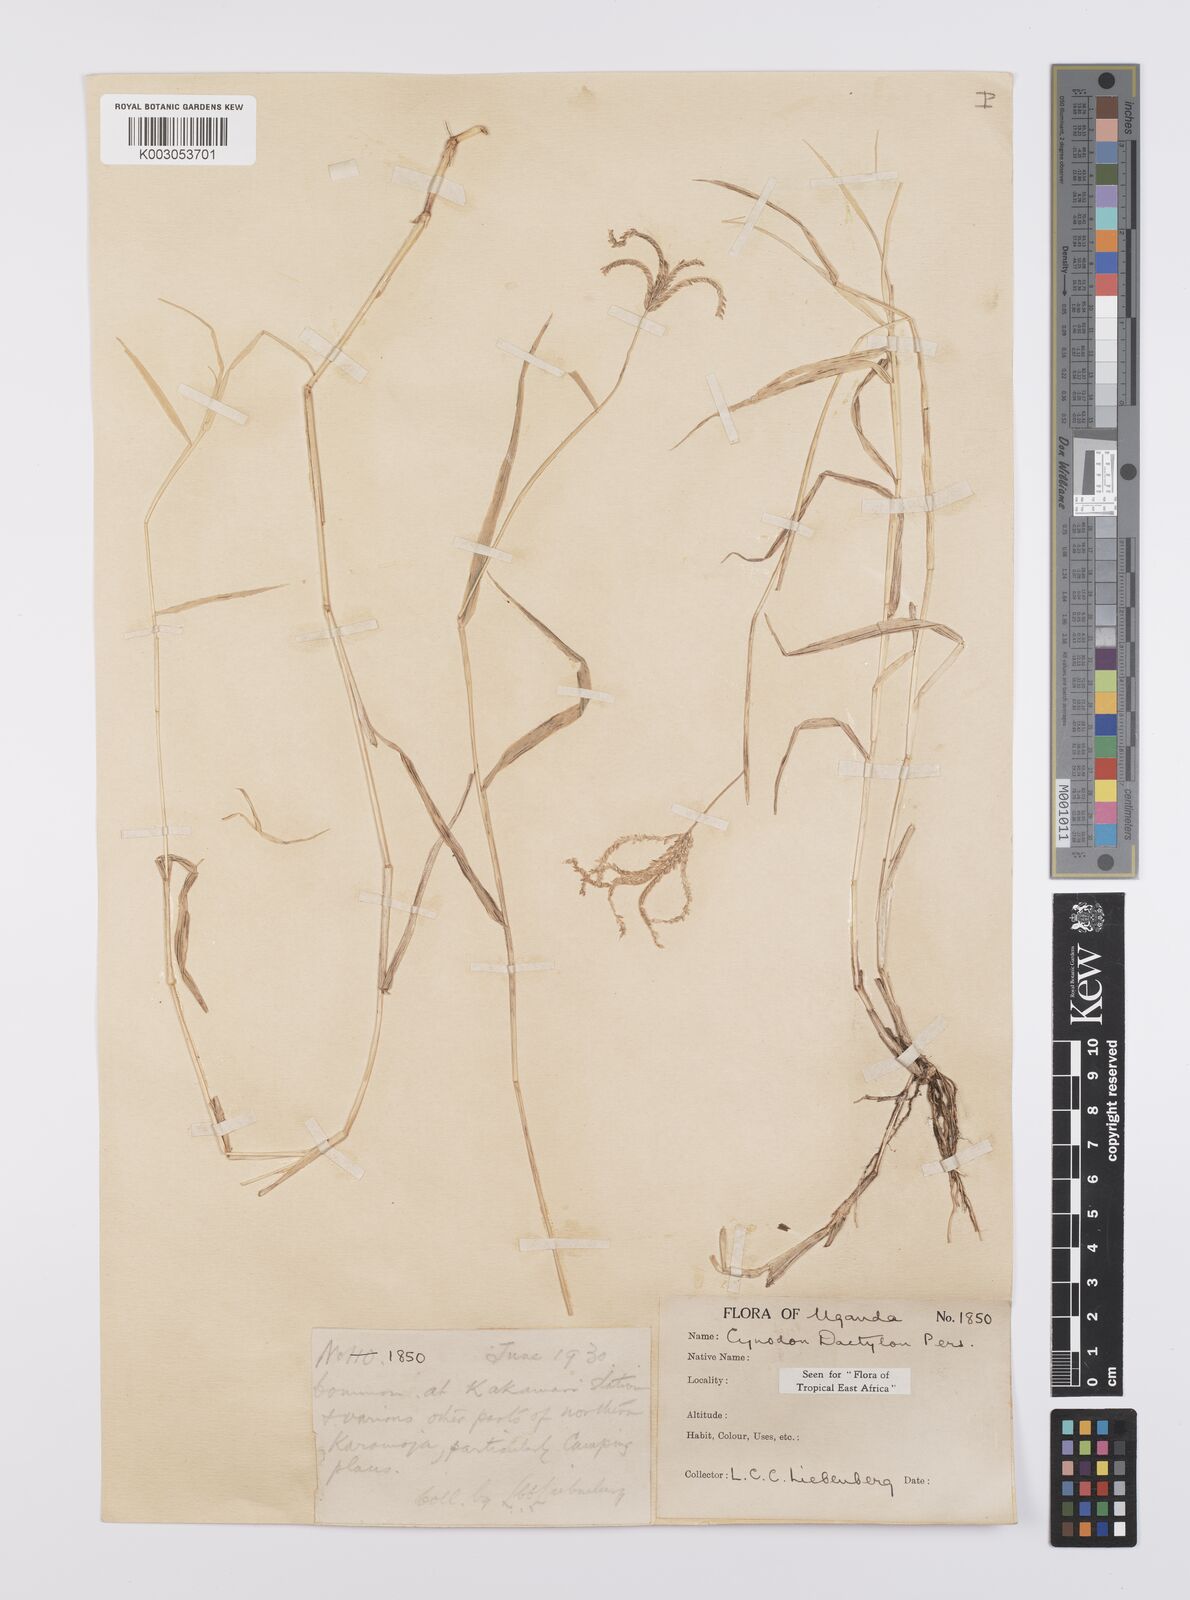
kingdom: Plantae
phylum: Tracheophyta
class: Liliopsida
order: Poales
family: Poaceae
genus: Cynodon
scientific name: Cynodon dactylon
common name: Bermuda grass
